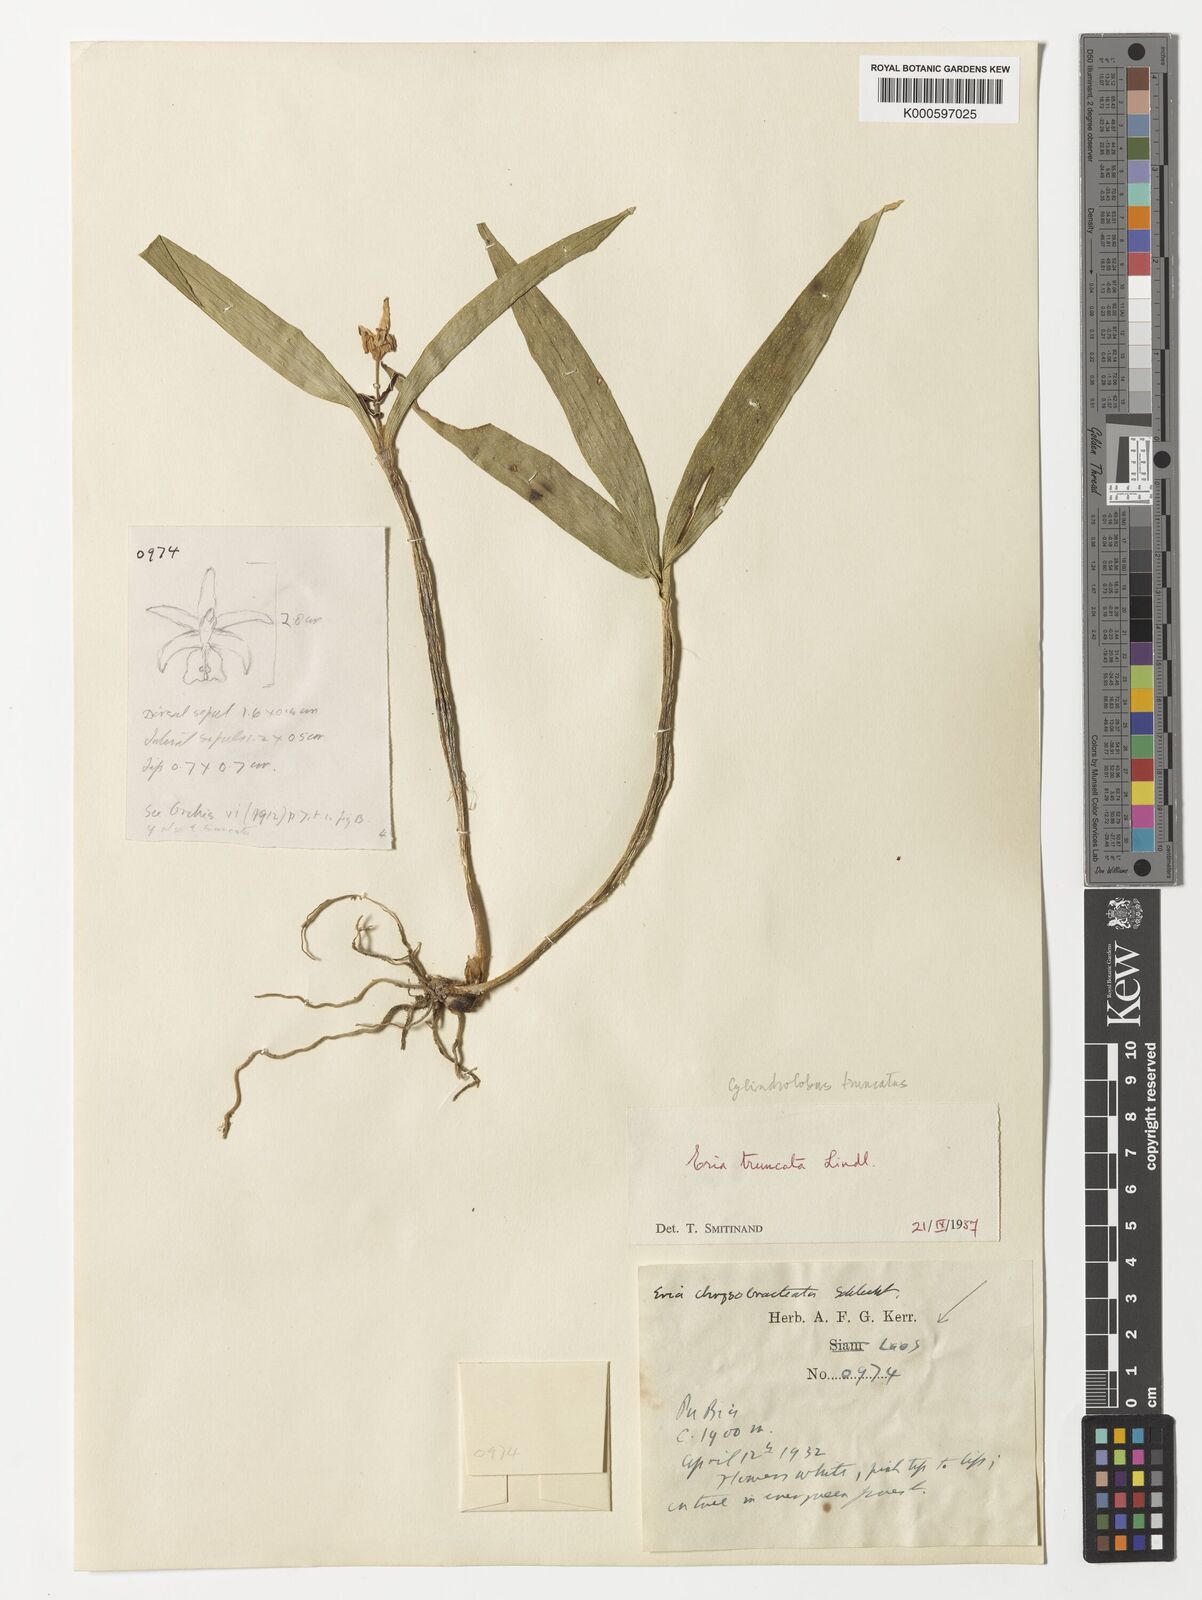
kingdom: Plantae
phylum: Tracheophyta
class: Liliopsida
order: Asparagales
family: Orchidaceae
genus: Cylindrolobus
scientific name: Cylindrolobus truncatus
